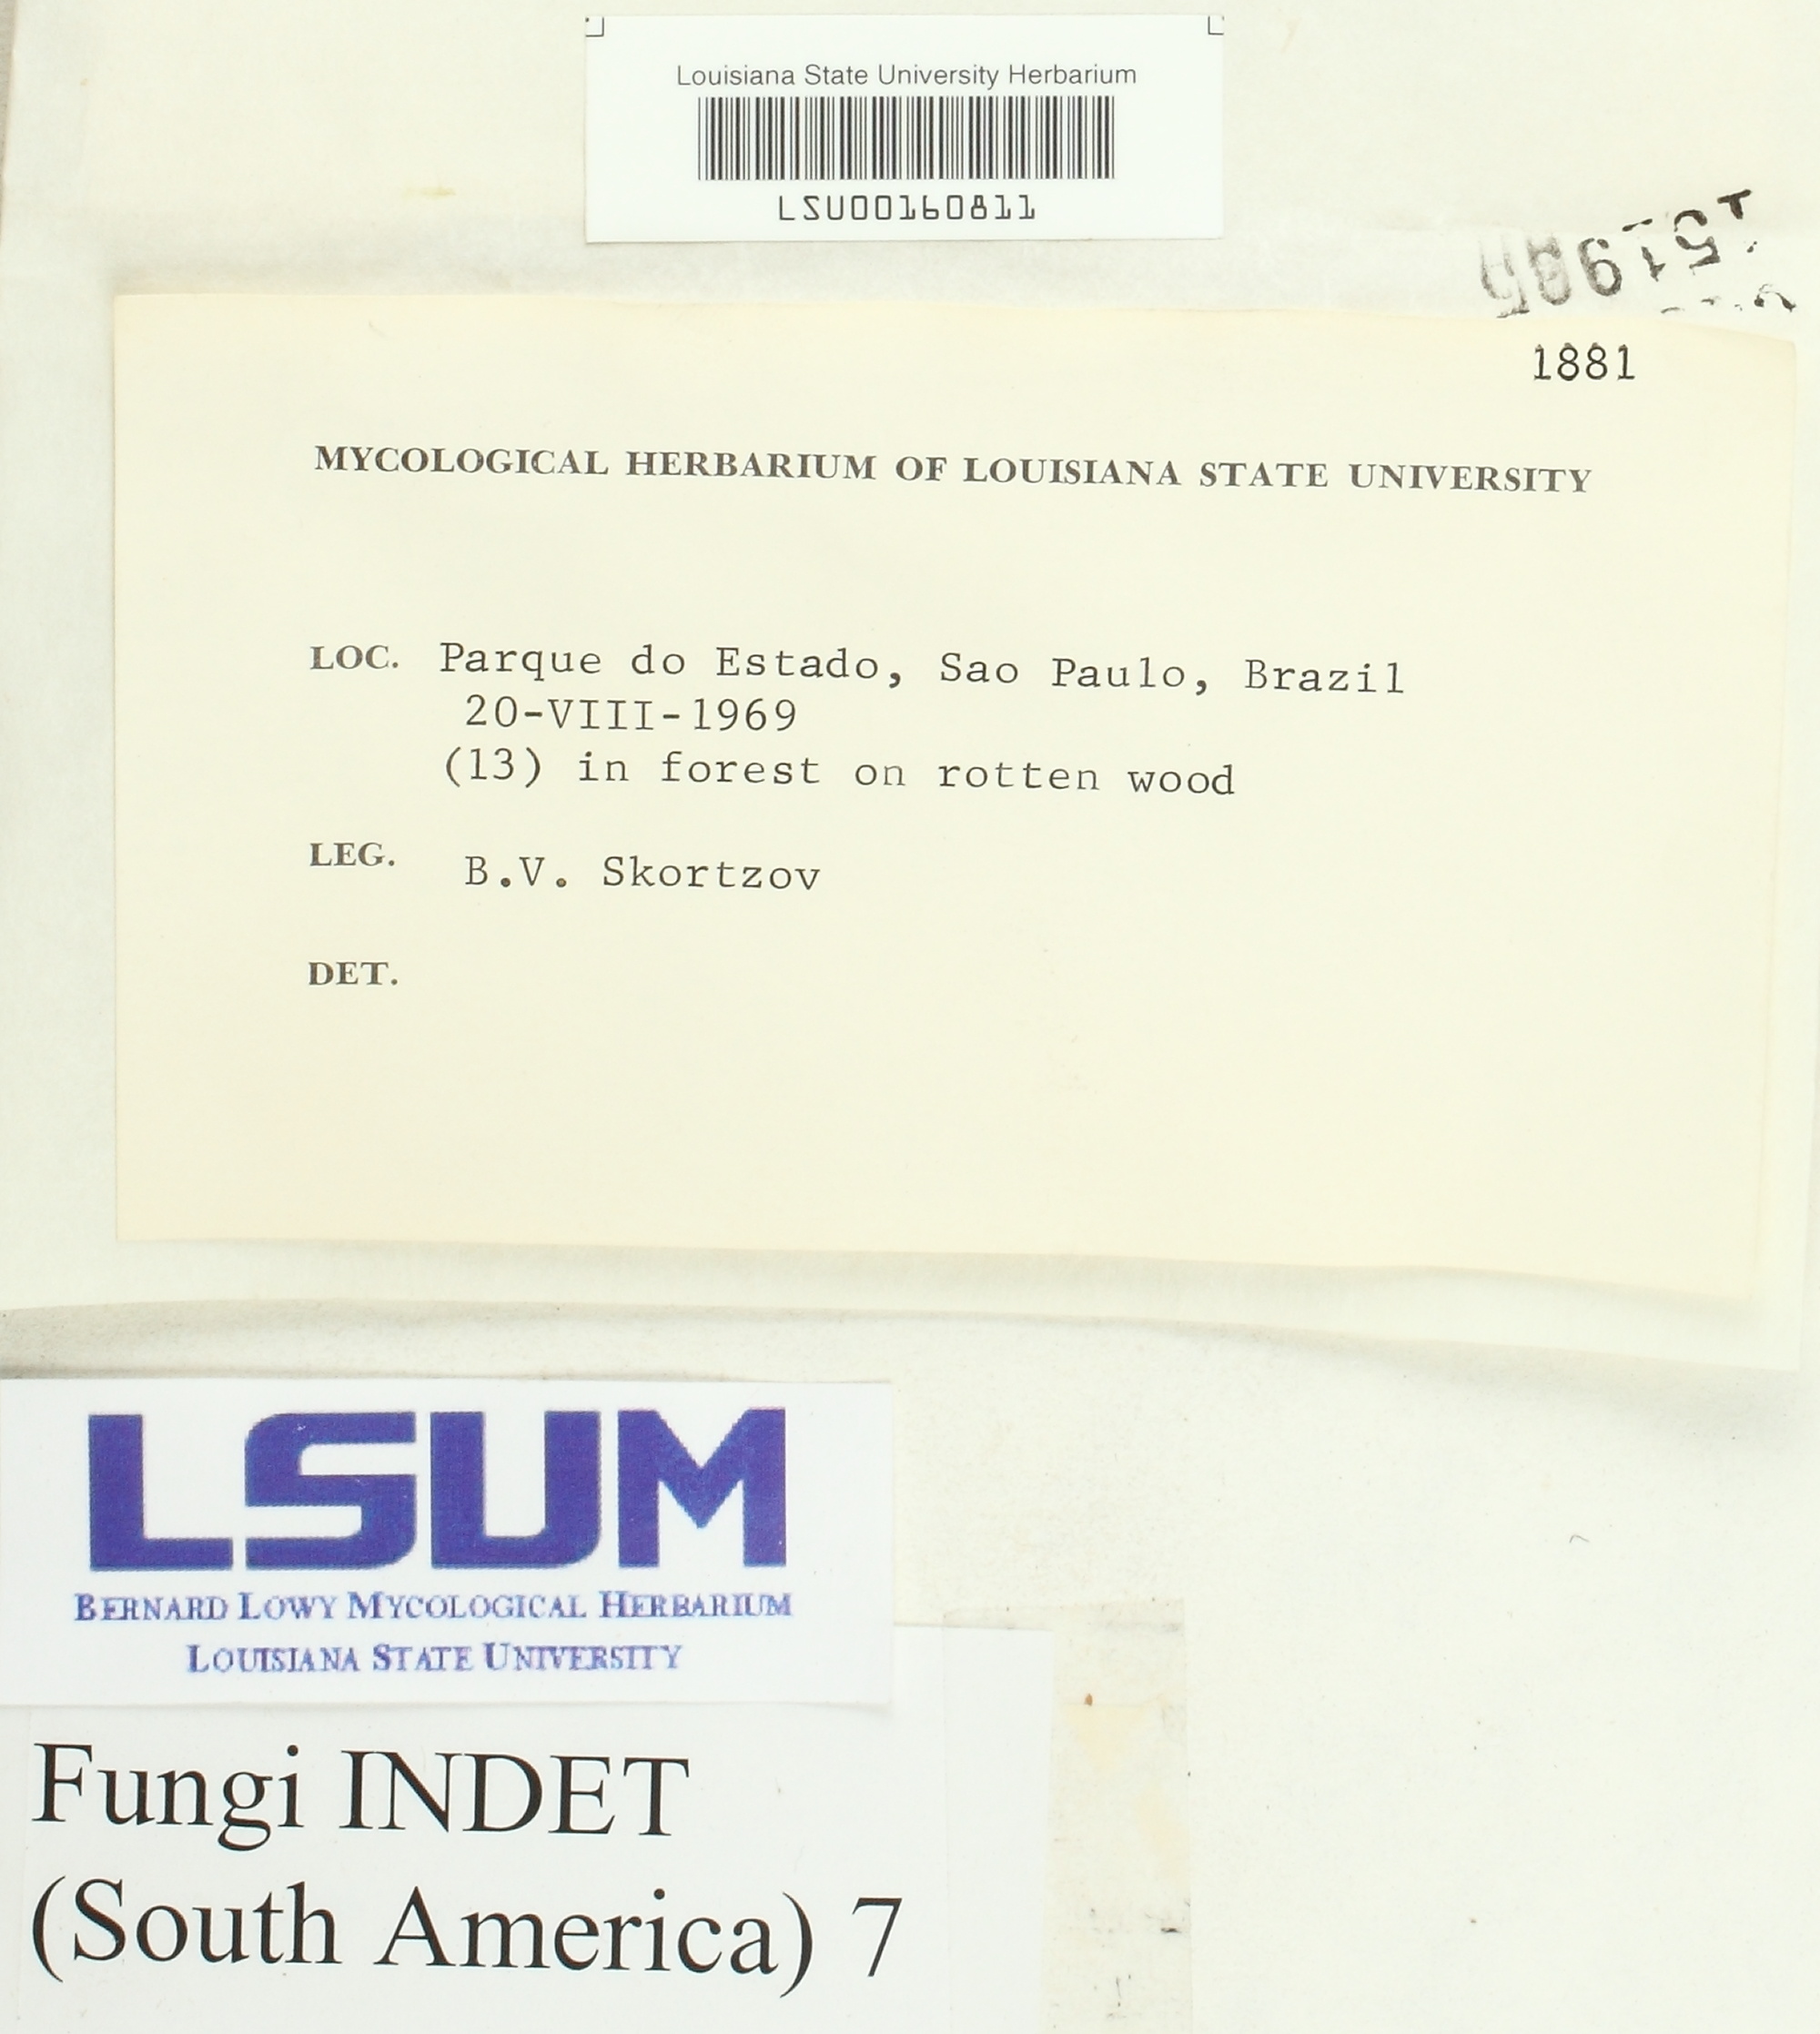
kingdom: Fungi
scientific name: Fungi
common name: Fungi
